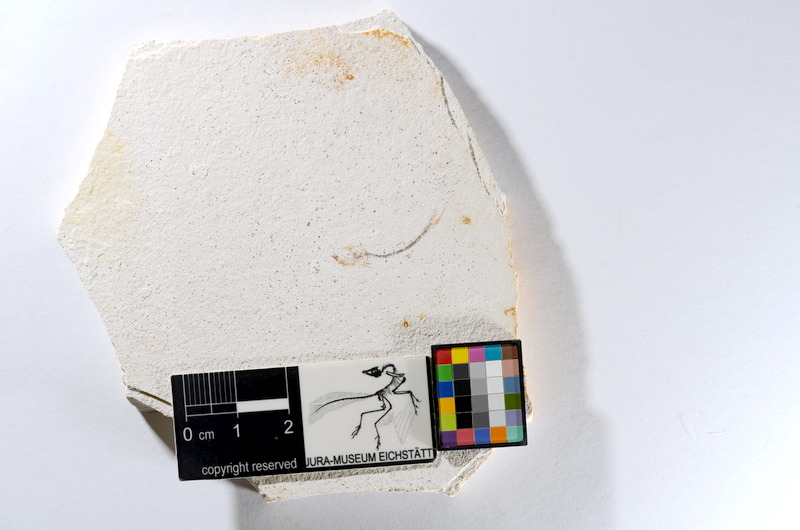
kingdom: Animalia
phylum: Chordata
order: Salmoniformes
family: Orthogonikleithridae
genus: Orthogonikleithrus
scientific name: Orthogonikleithrus hoelli
